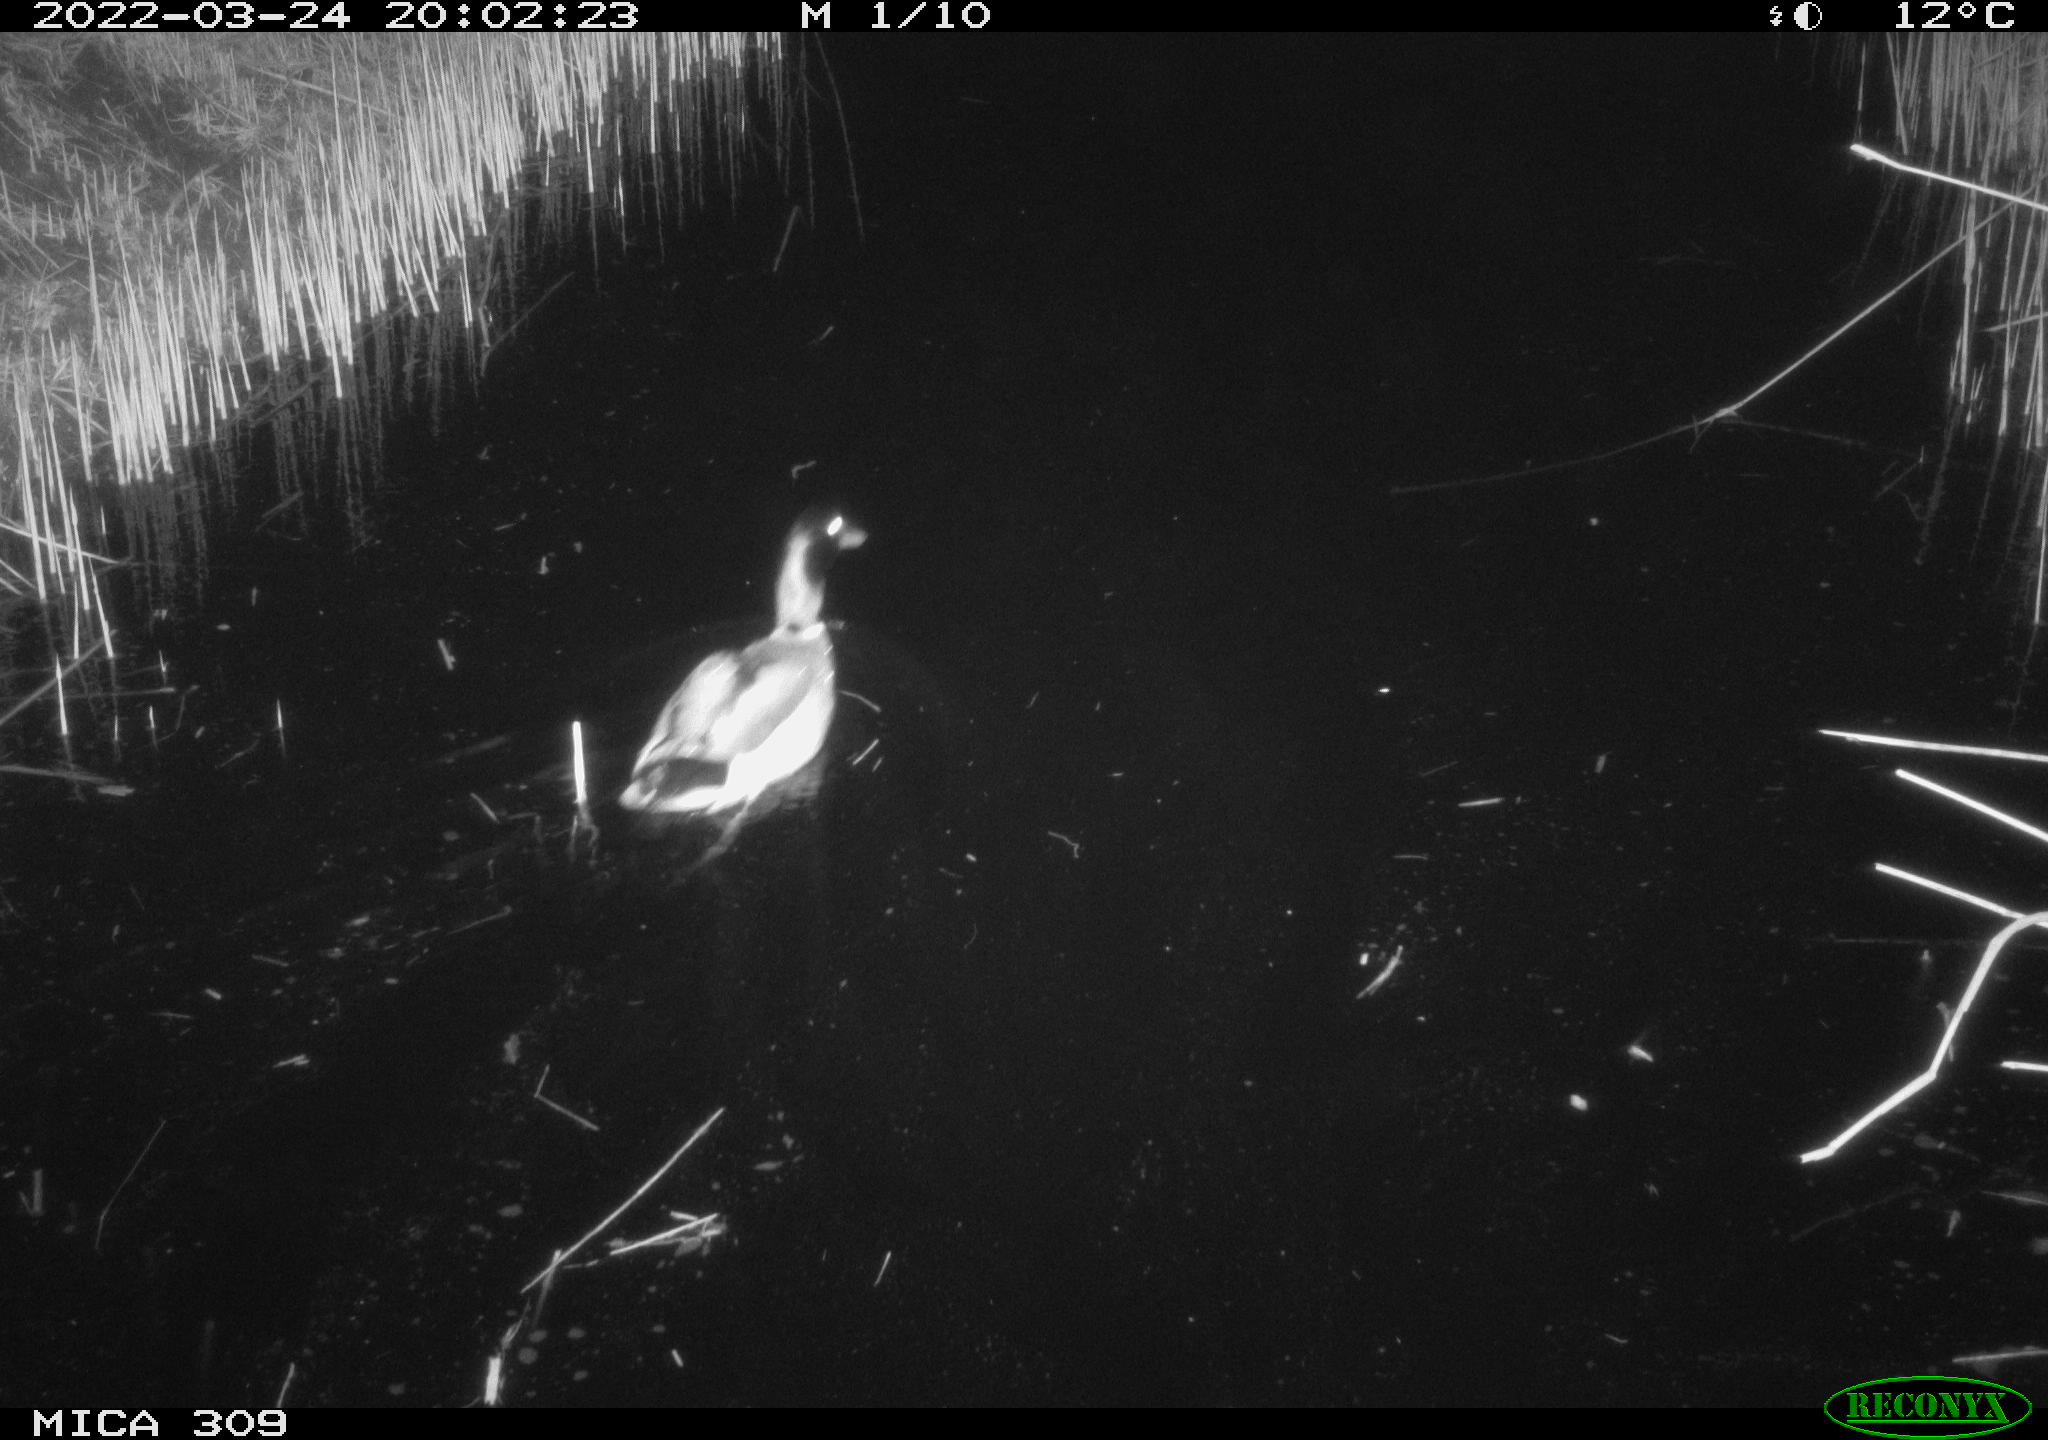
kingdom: Animalia
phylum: Chordata
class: Aves
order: Anseriformes
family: Anatidae
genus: Anas
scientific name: Anas platyrhynchos
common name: Mallard
